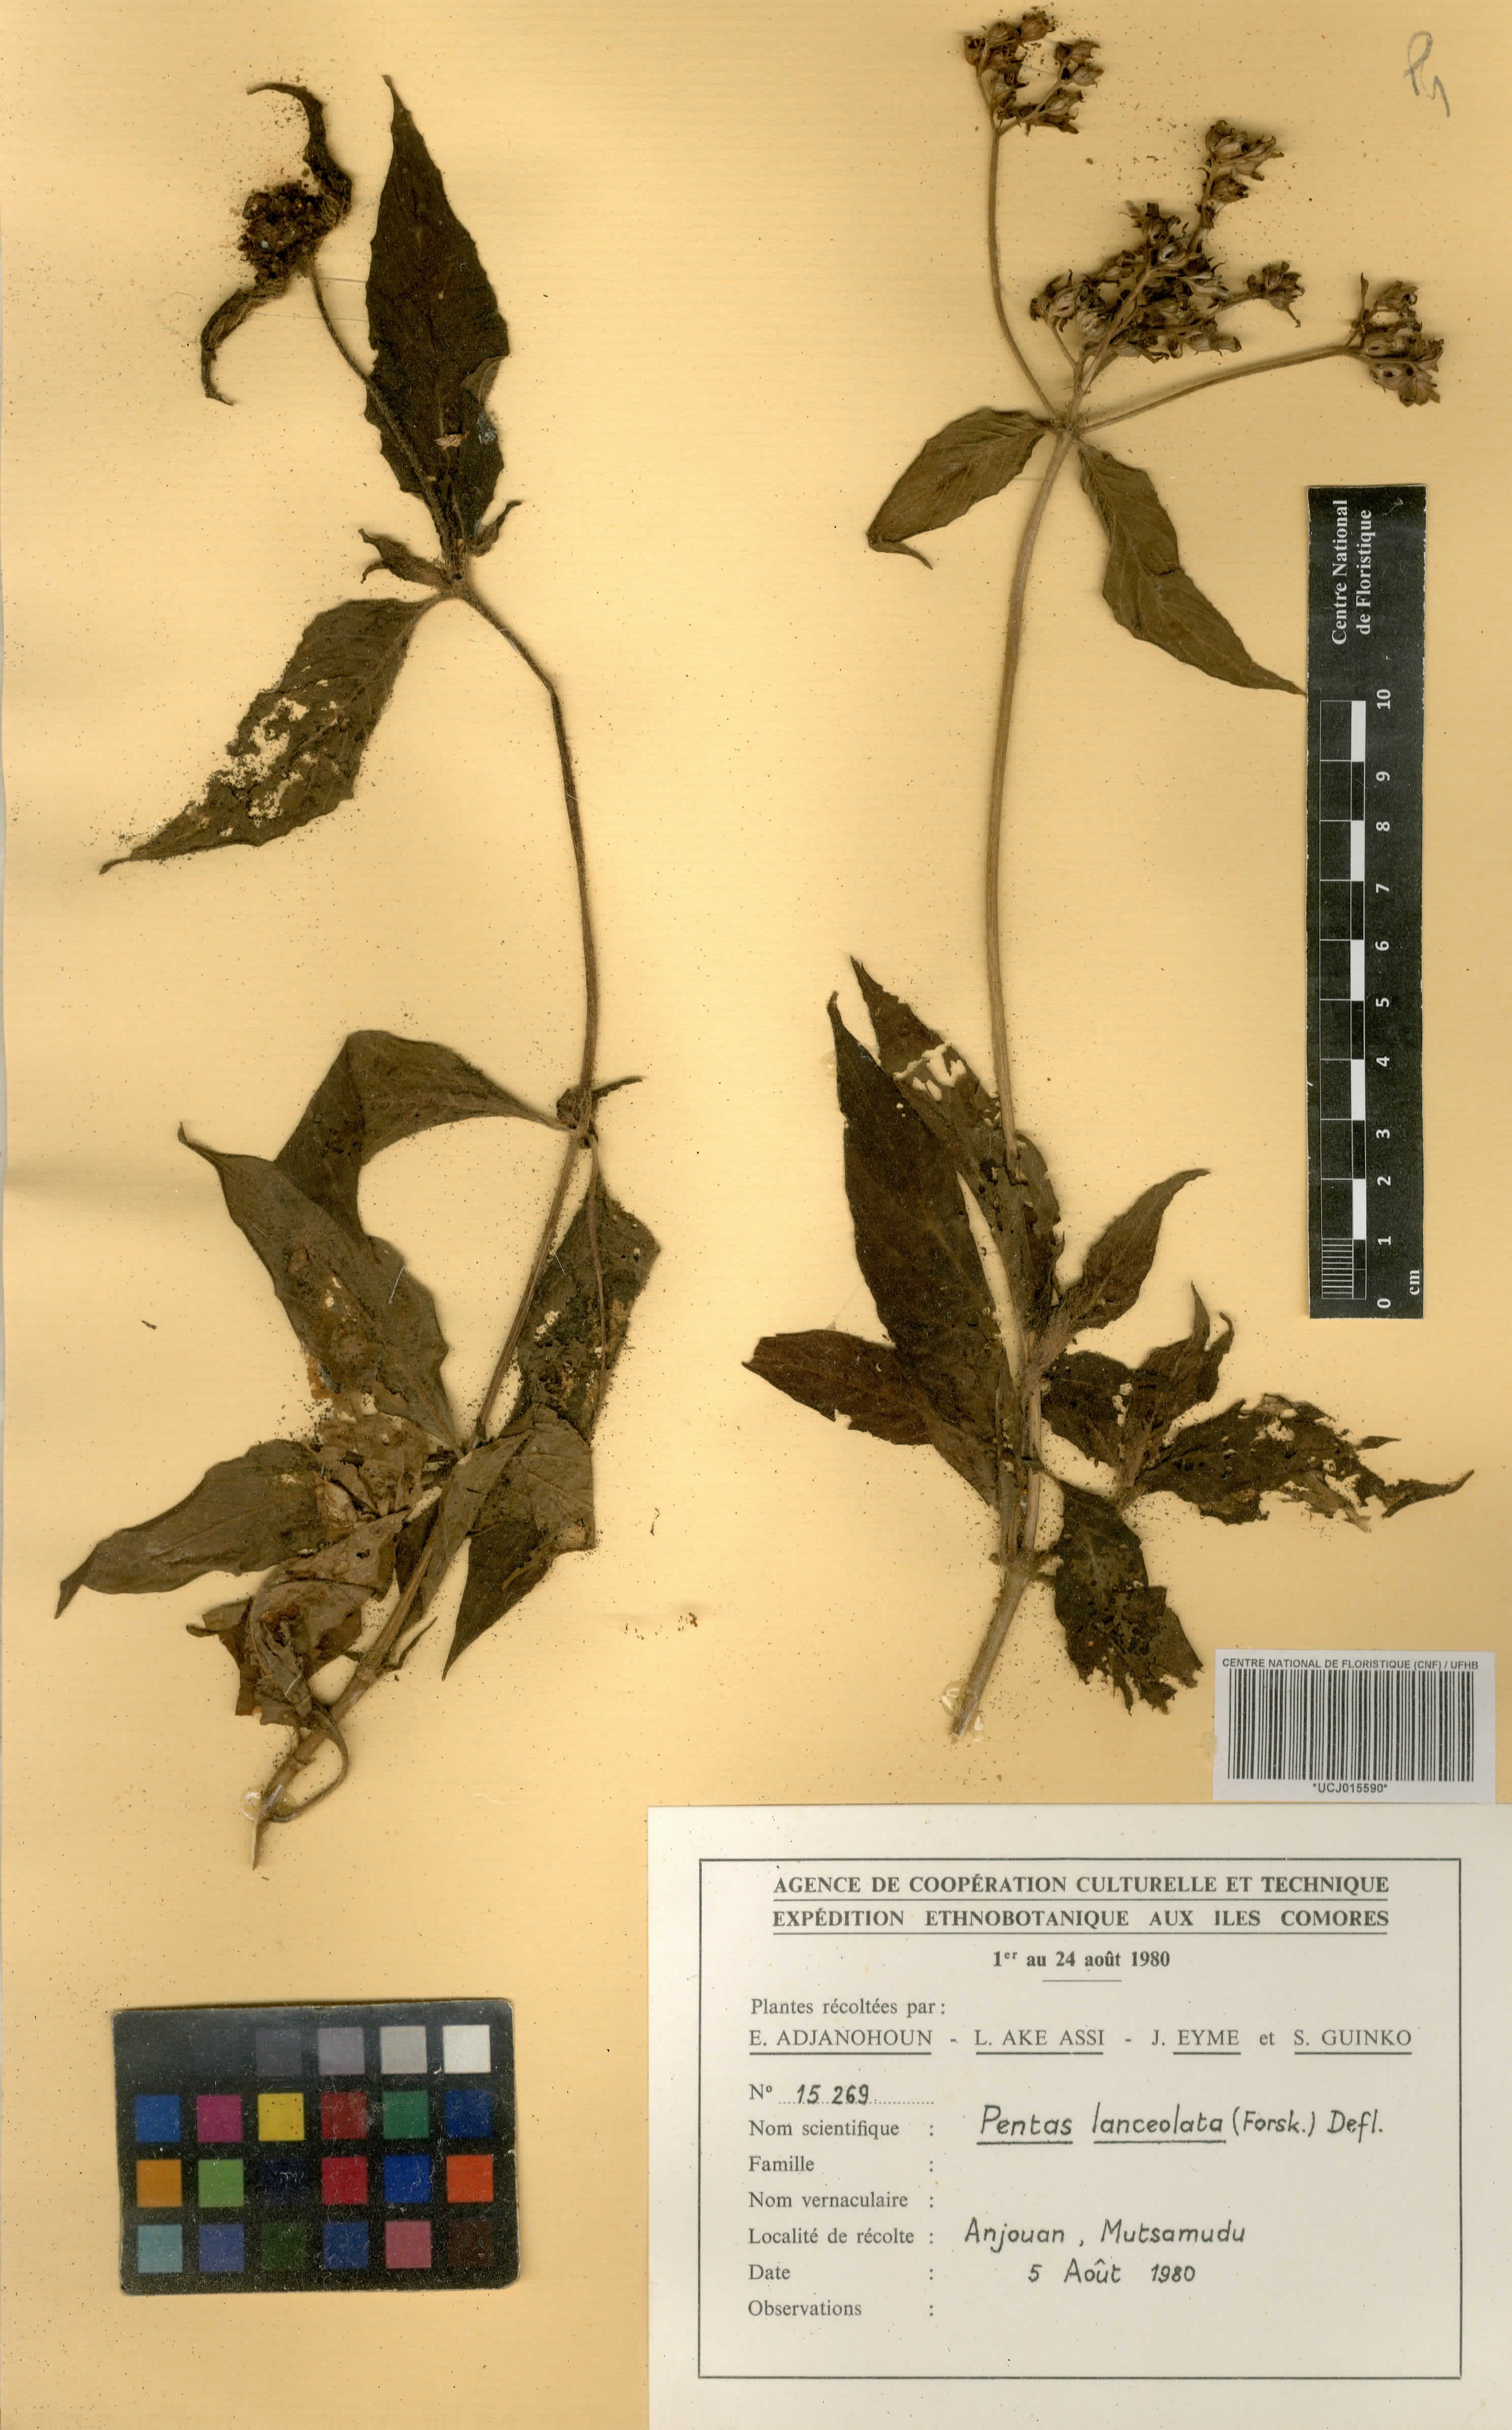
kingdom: Plantae
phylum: Tracheophyta
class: Magnoliopsida
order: Gentianales
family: Rubiaceae
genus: Pentas
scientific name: Pentas lanceolata
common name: Egyptian starcluster
